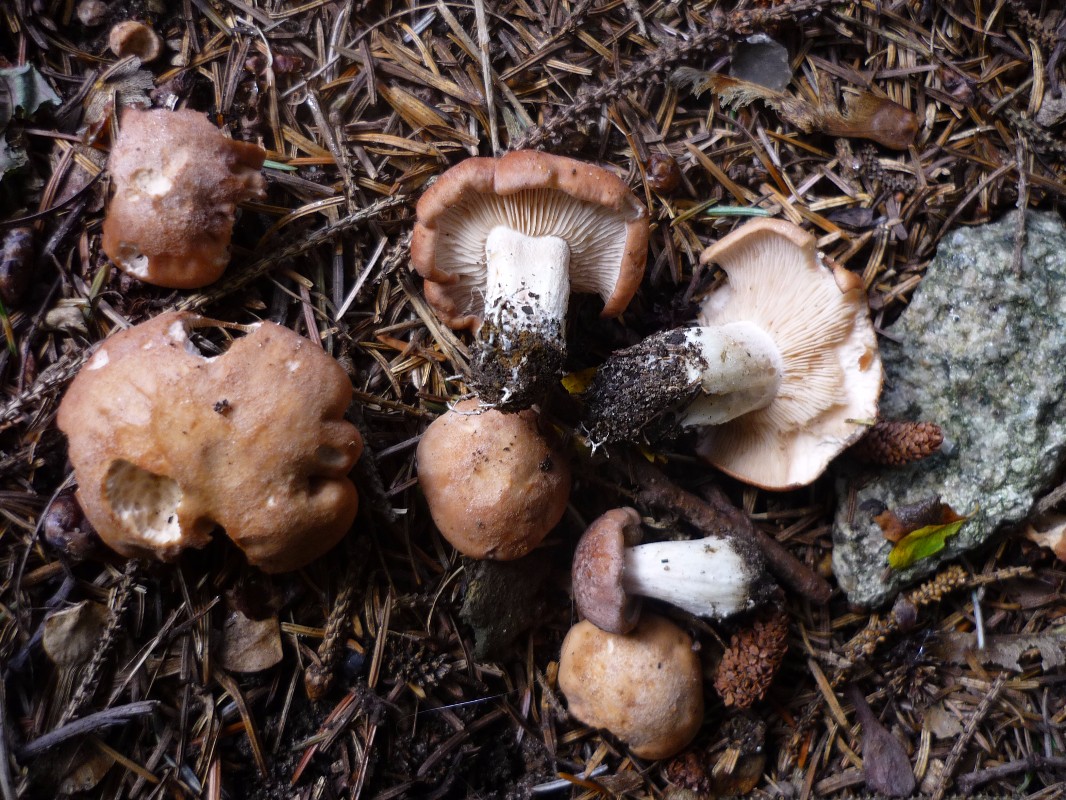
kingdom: Fungi
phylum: Basidiomycota
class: Agaricomycetes
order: Agaricales
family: Entolomataceae
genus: Clitopilus
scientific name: Clitopilus geminus
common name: kødfarvet troldhat
